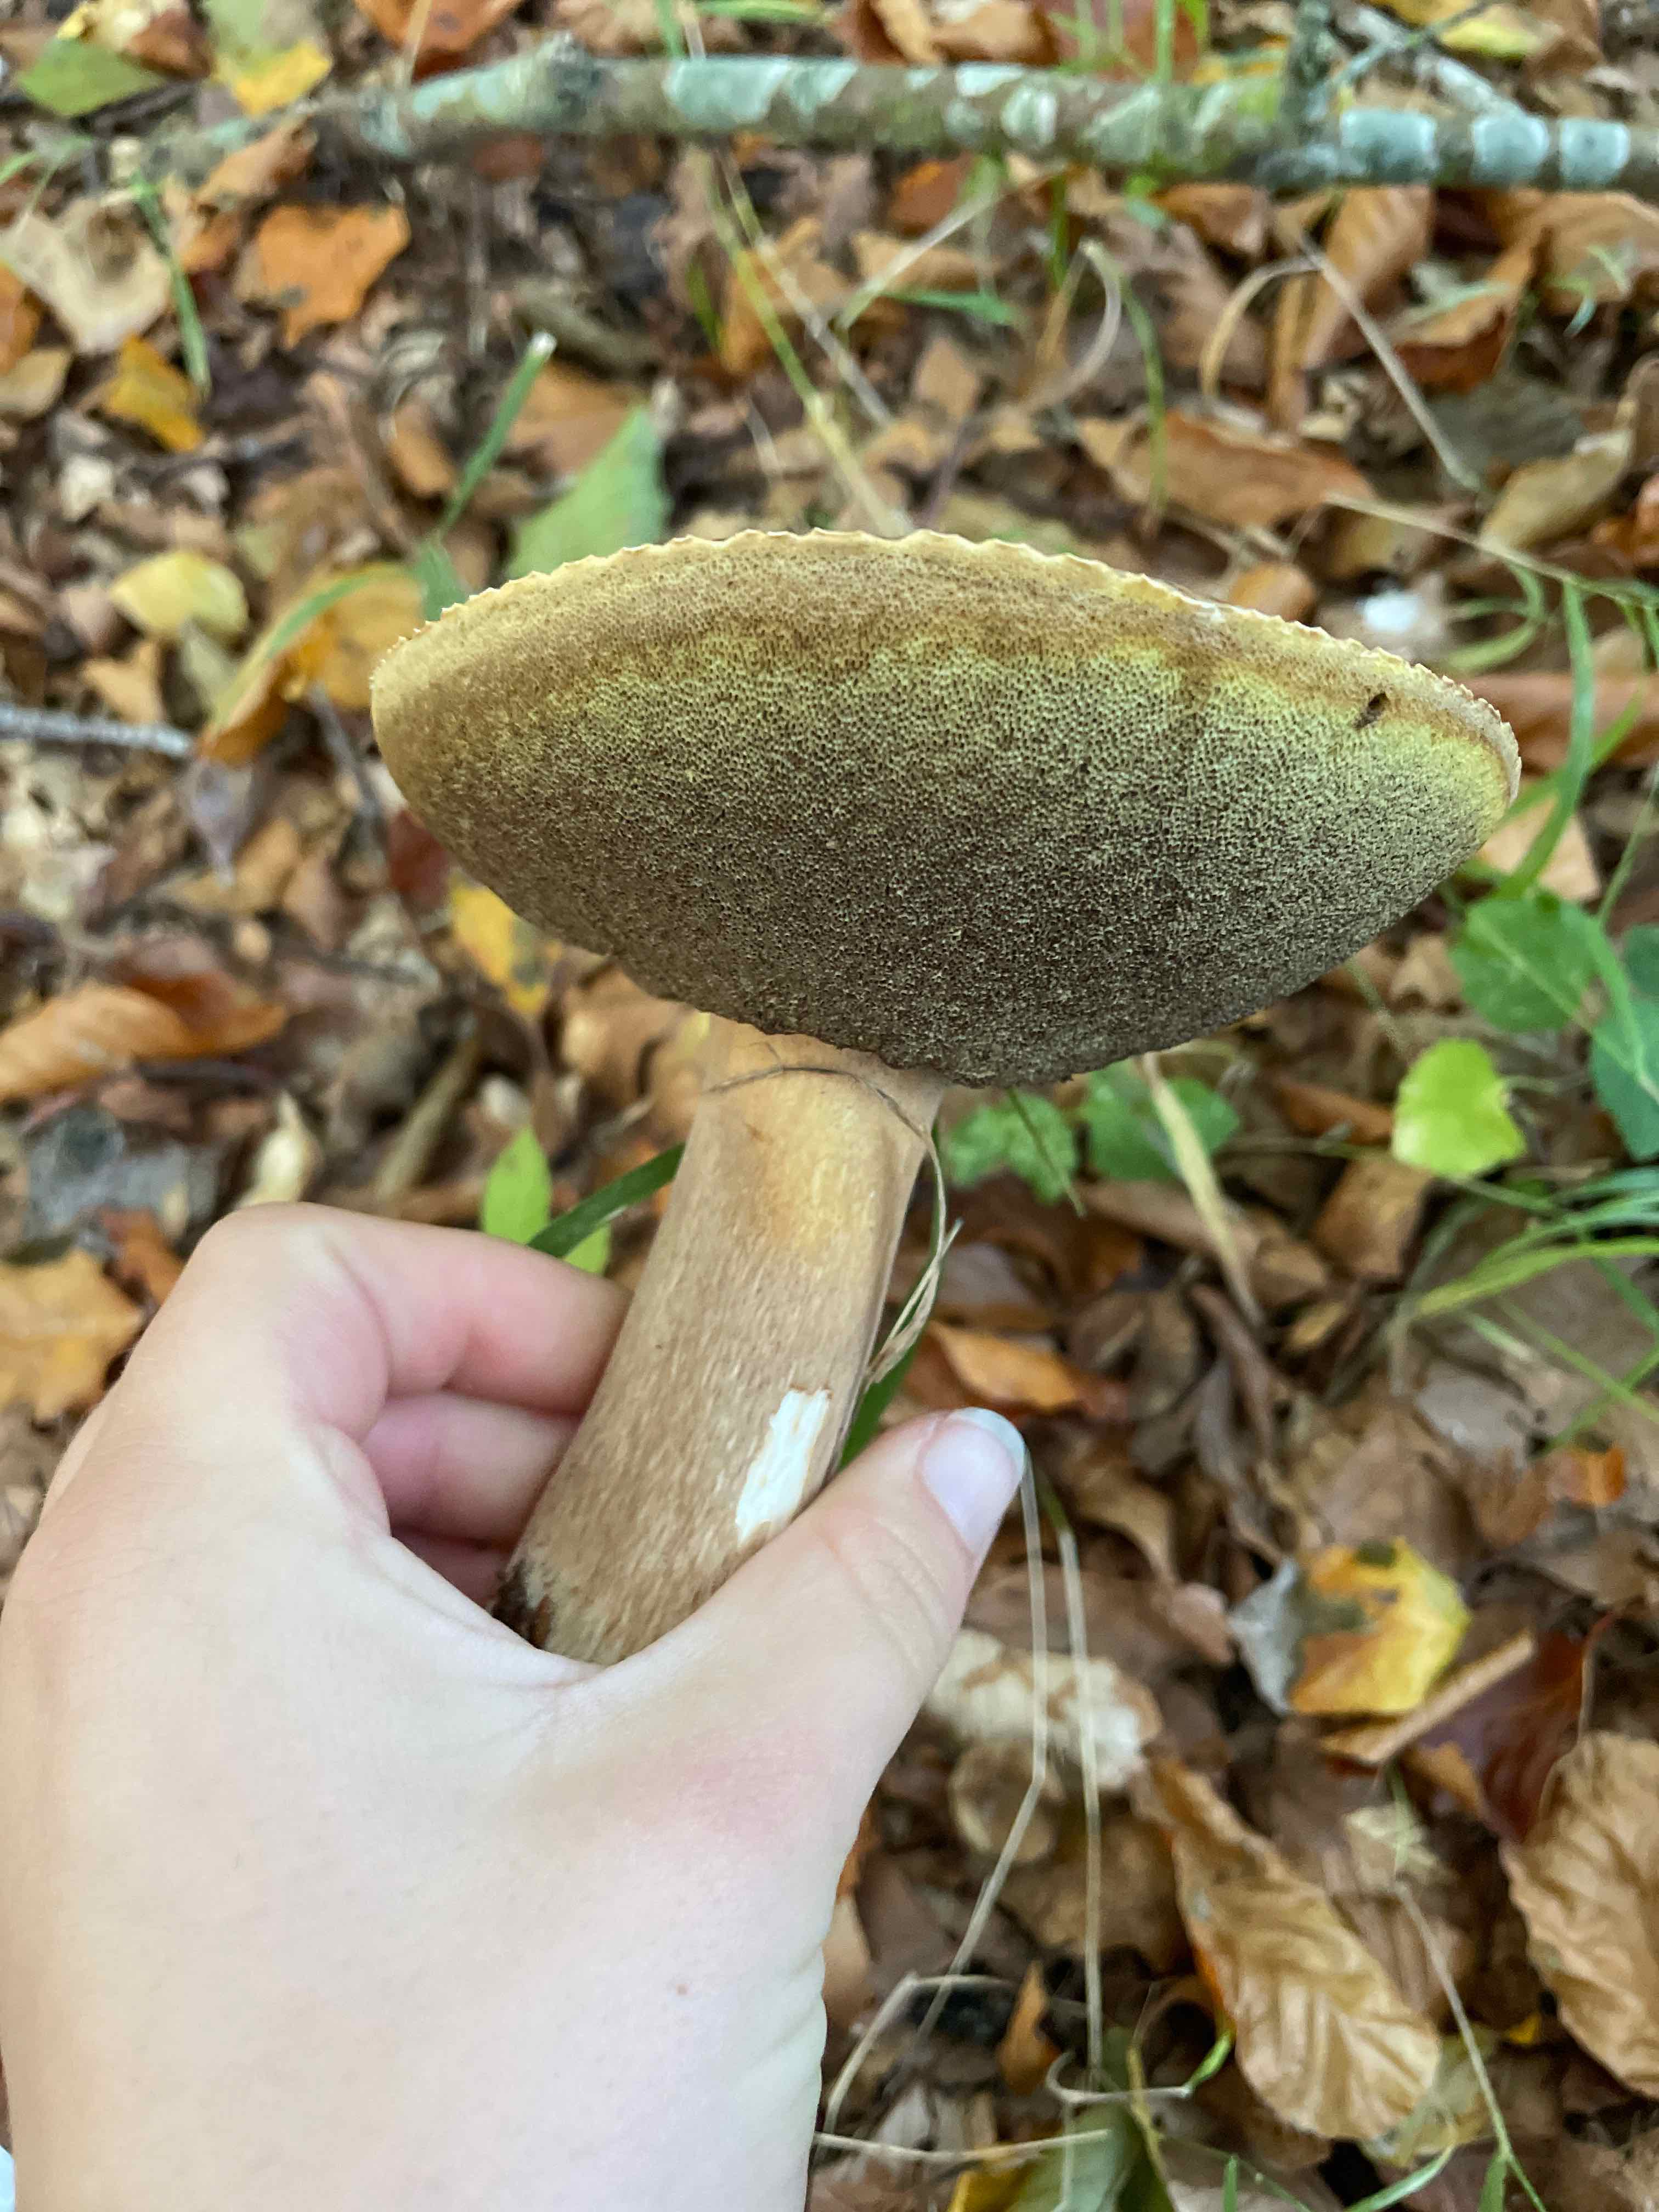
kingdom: Fungi
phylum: Basidiomycota
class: Agaricomycetes
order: Boletales
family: Boletaceae
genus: Boletus
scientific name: Boletus edulis
